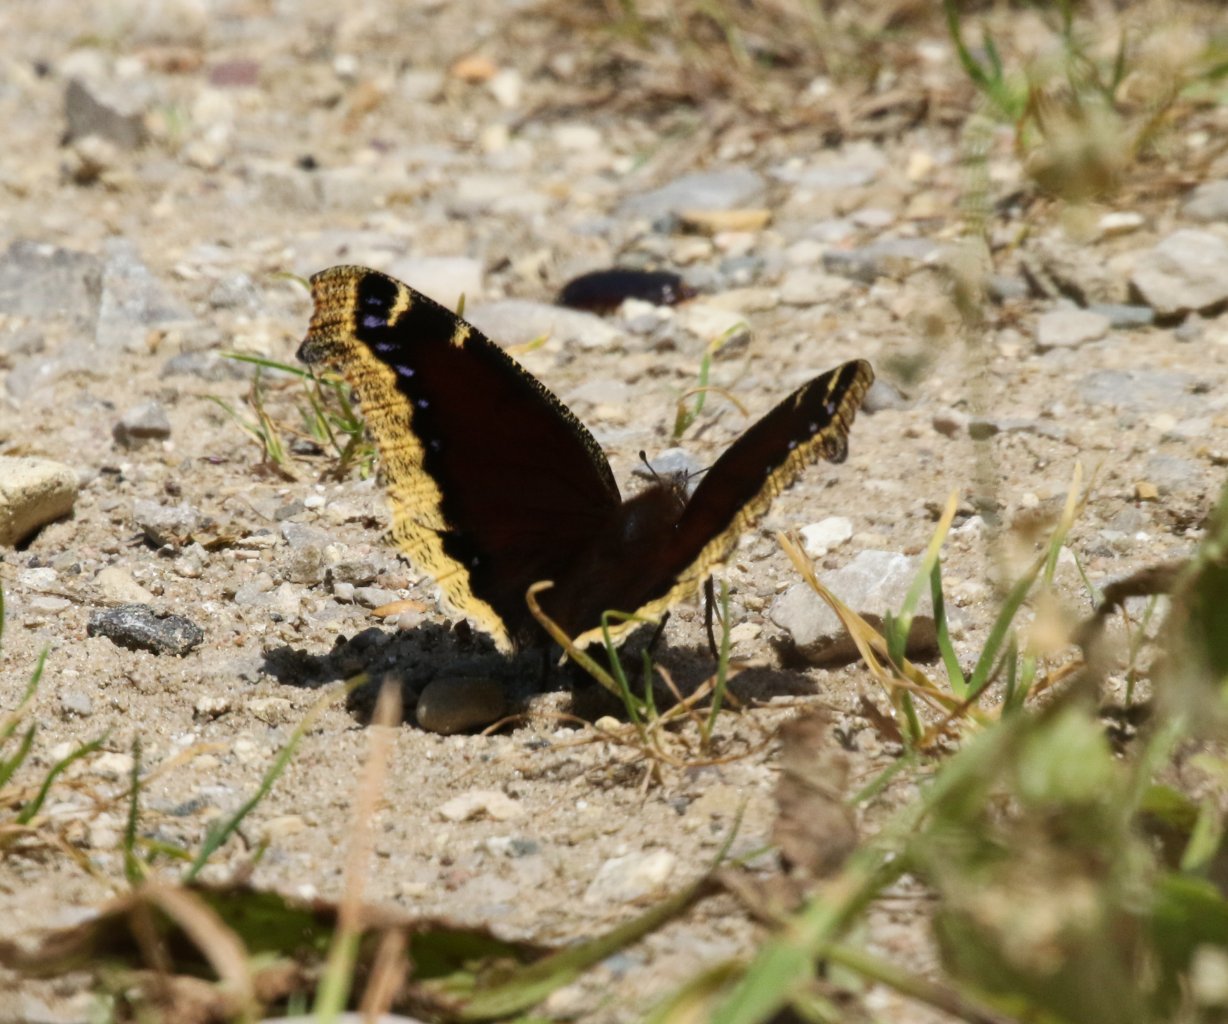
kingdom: Animalia
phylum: Arthropoda
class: Insecta
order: Lepidoptera
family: Nymphalidae
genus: Nymphalis
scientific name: Nymphalis antiopa
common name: Mourning Cloak
